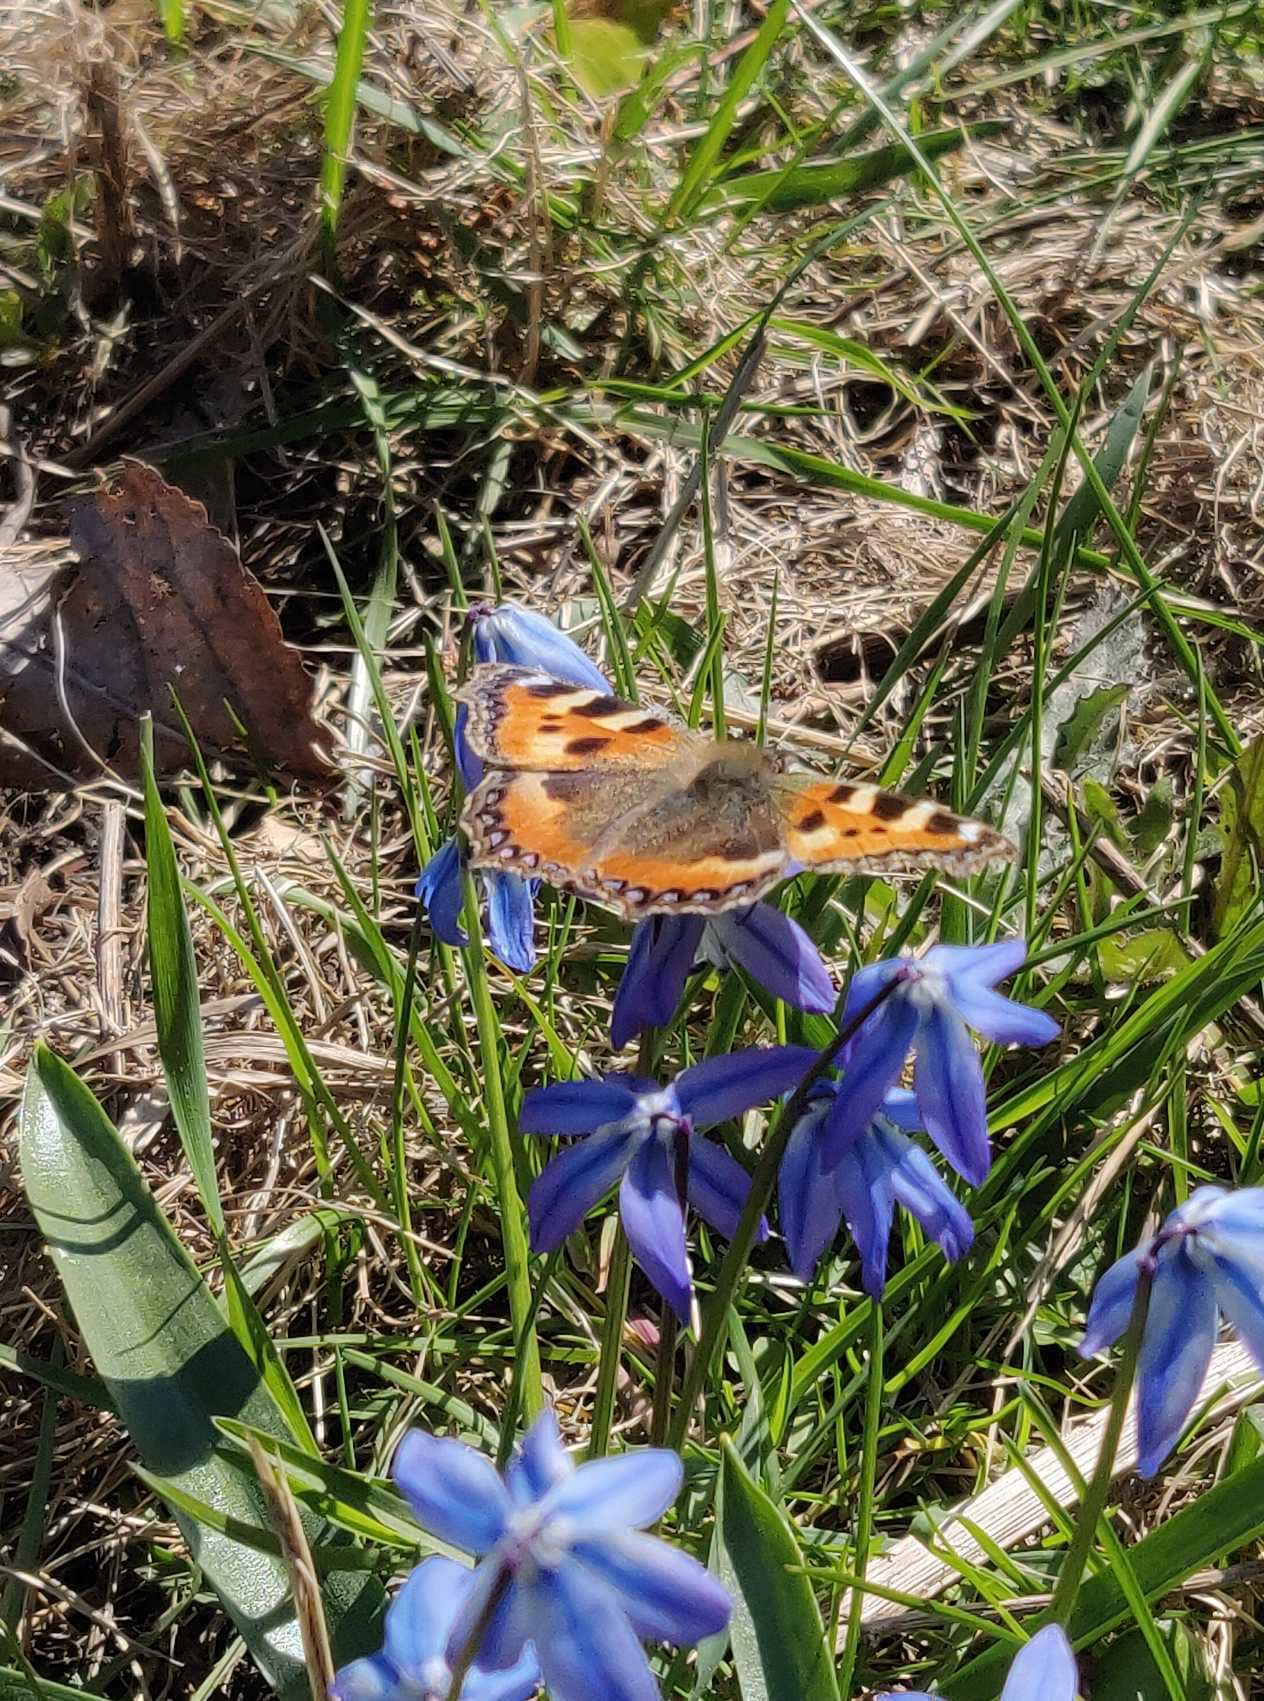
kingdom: Animalia
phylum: Arthropoda
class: Insecta
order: Lepidoptera
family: Nymphalidae
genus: Aglais
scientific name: Aglais urticae
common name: Nældens takvinge
